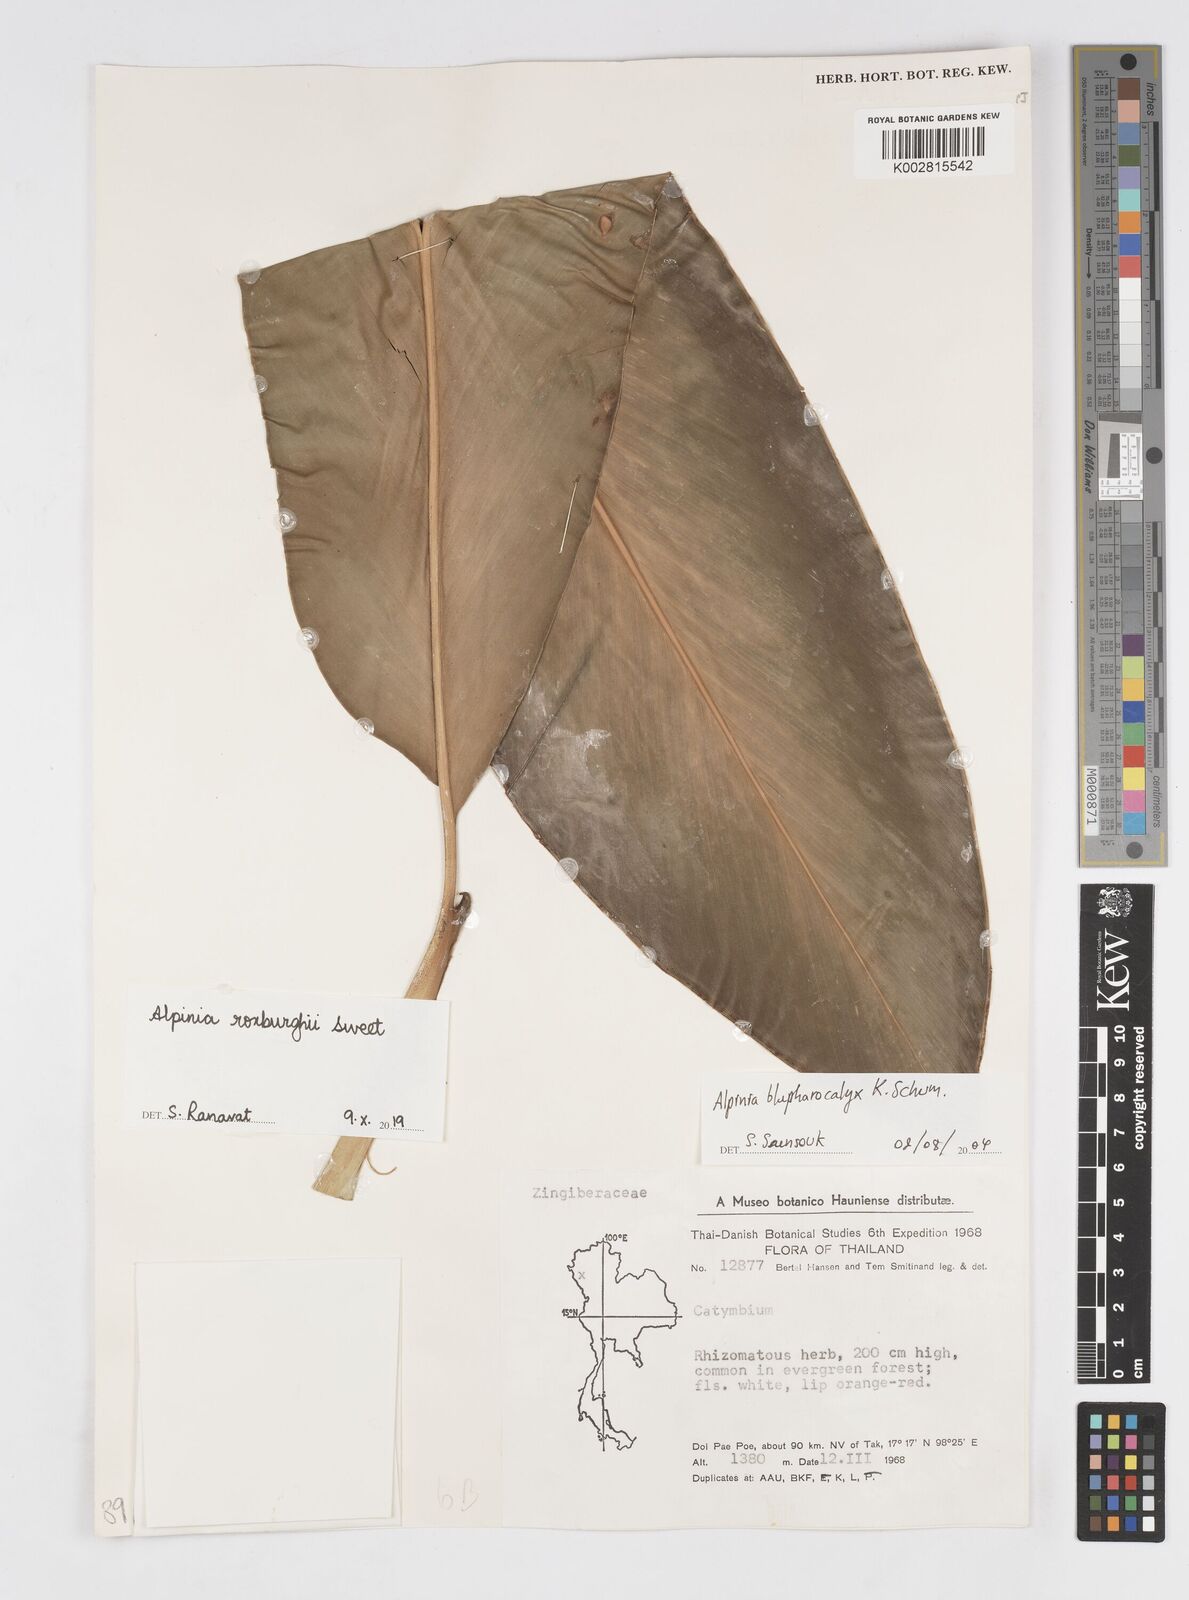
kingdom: Plantae
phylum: Tracheophyta
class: Liliopsida
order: Zingiberales
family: Zingiberaceae
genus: Alpinia
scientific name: Alpinia roxburghii
